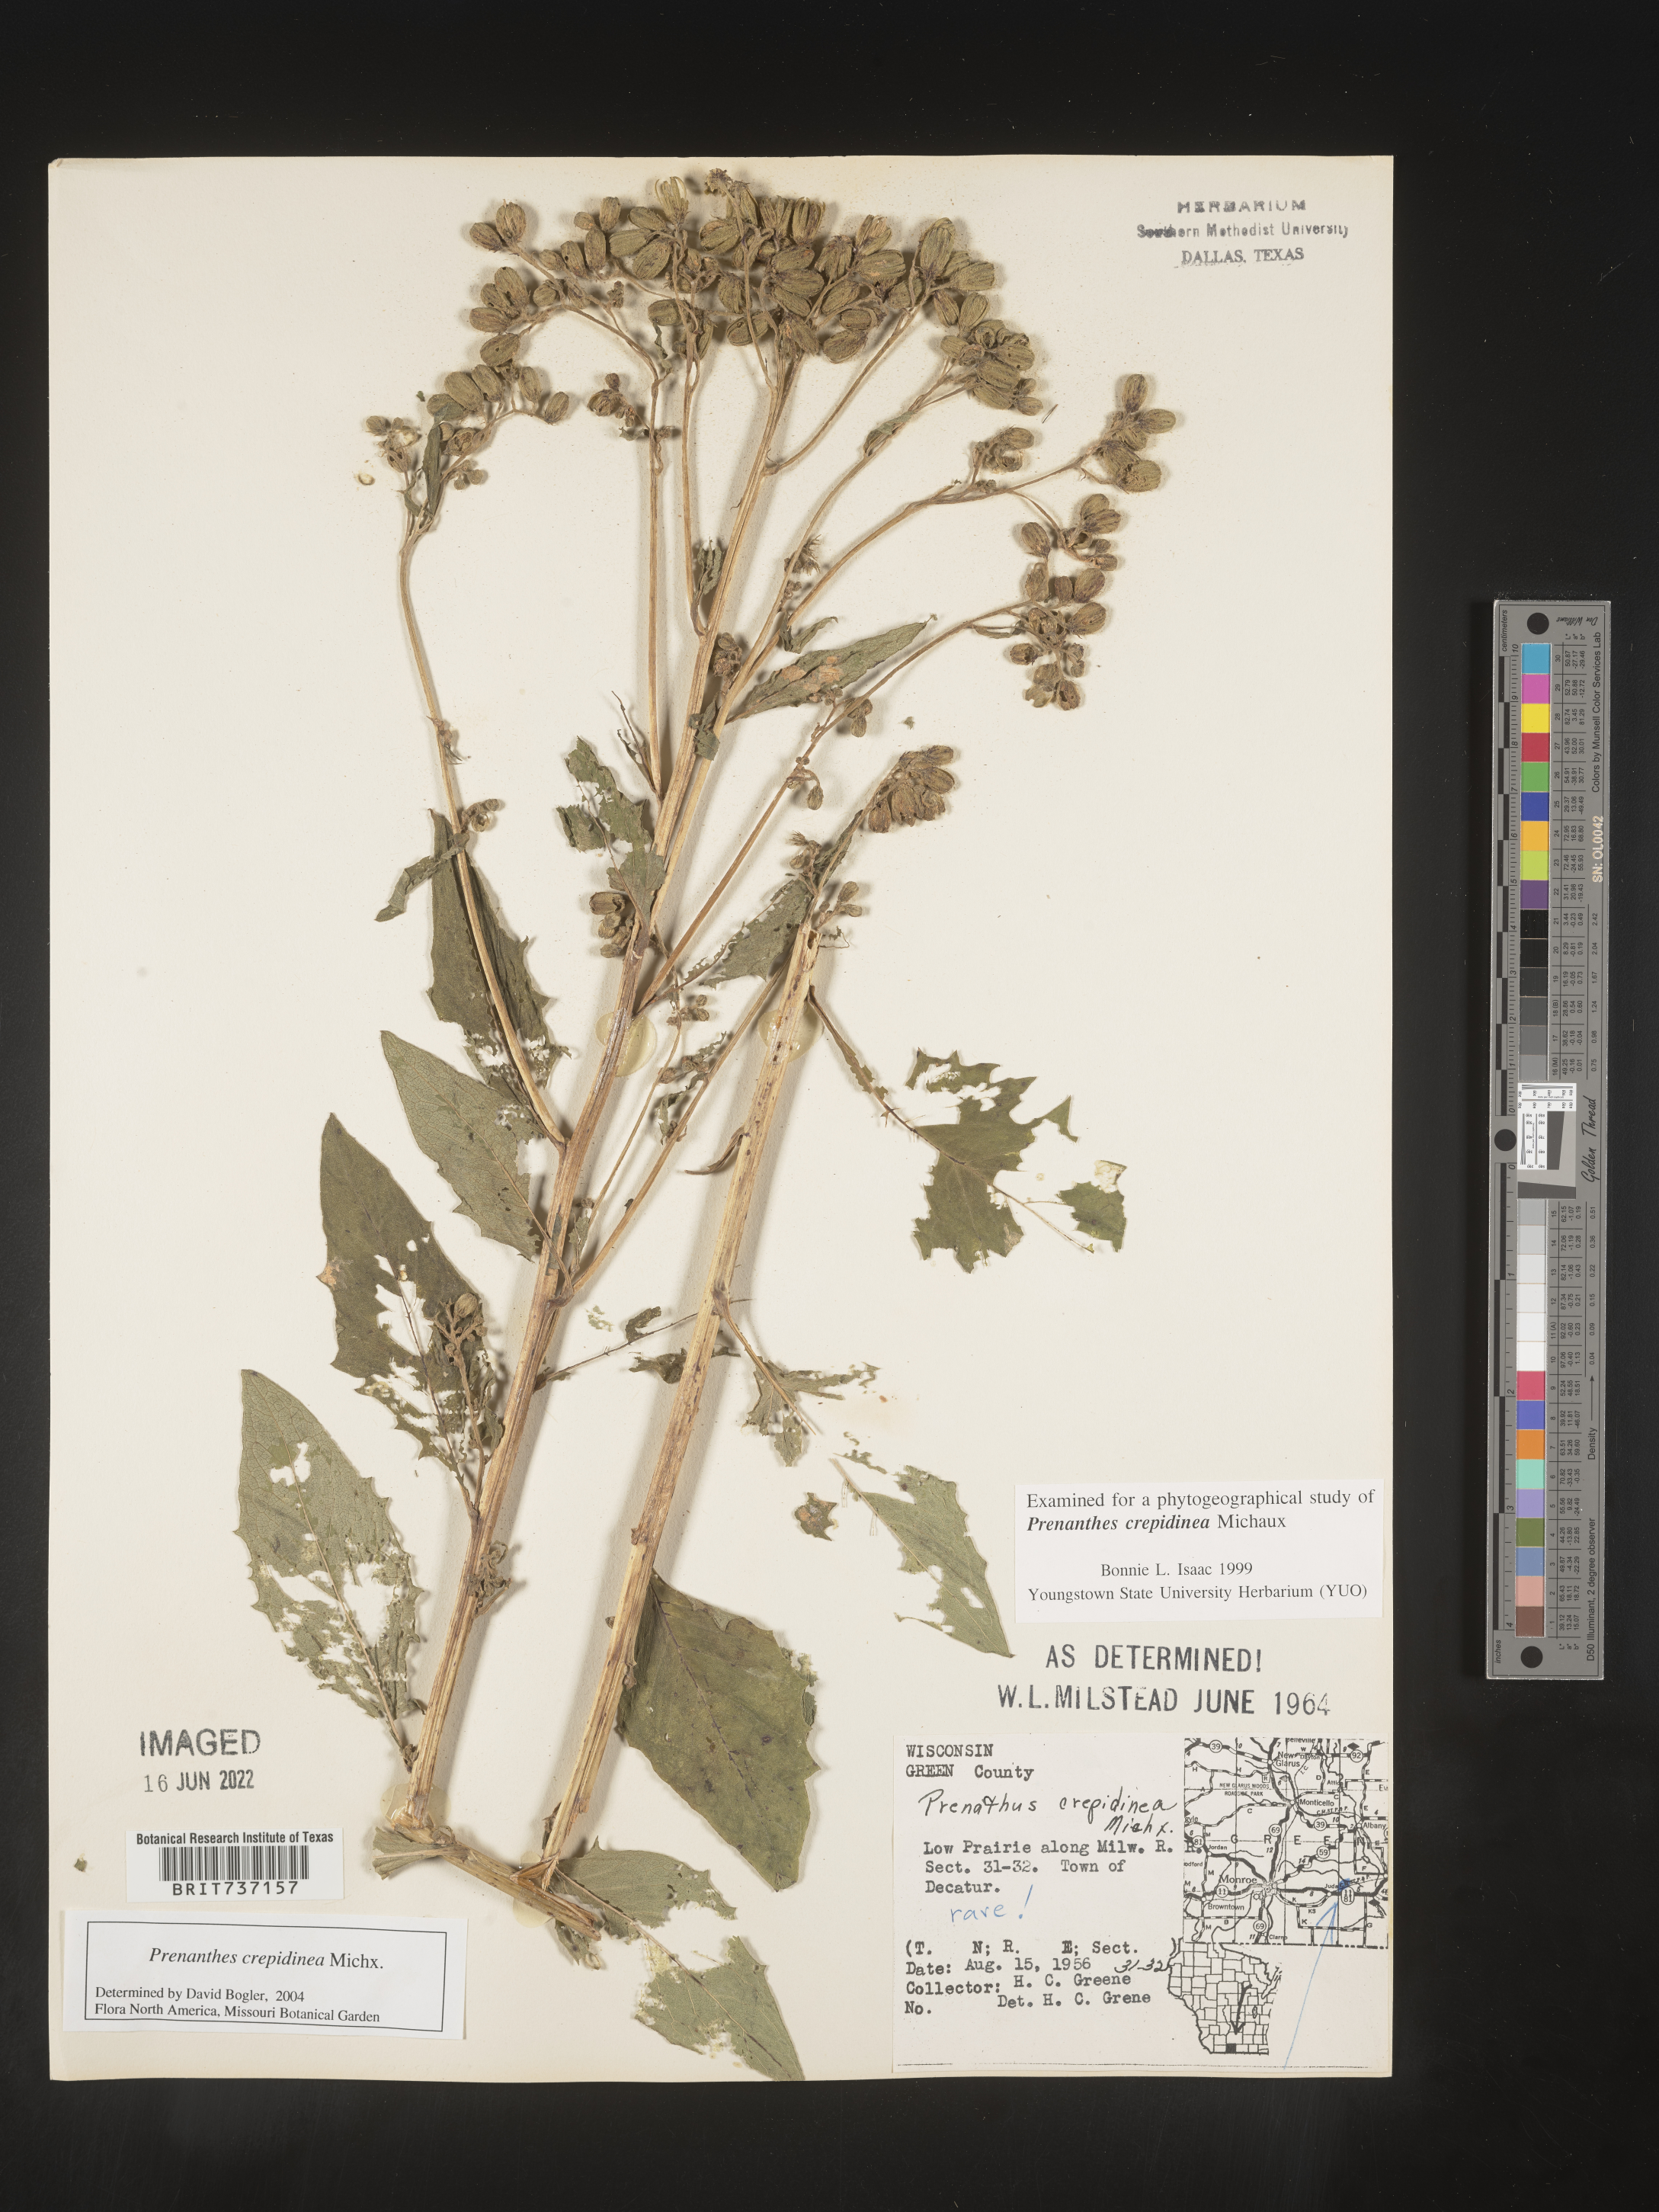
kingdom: Plantae
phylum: Tracheophyta
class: Magnoliopsida
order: Asterales
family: Asteraceae
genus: Prenanthes
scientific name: Prenanthes
